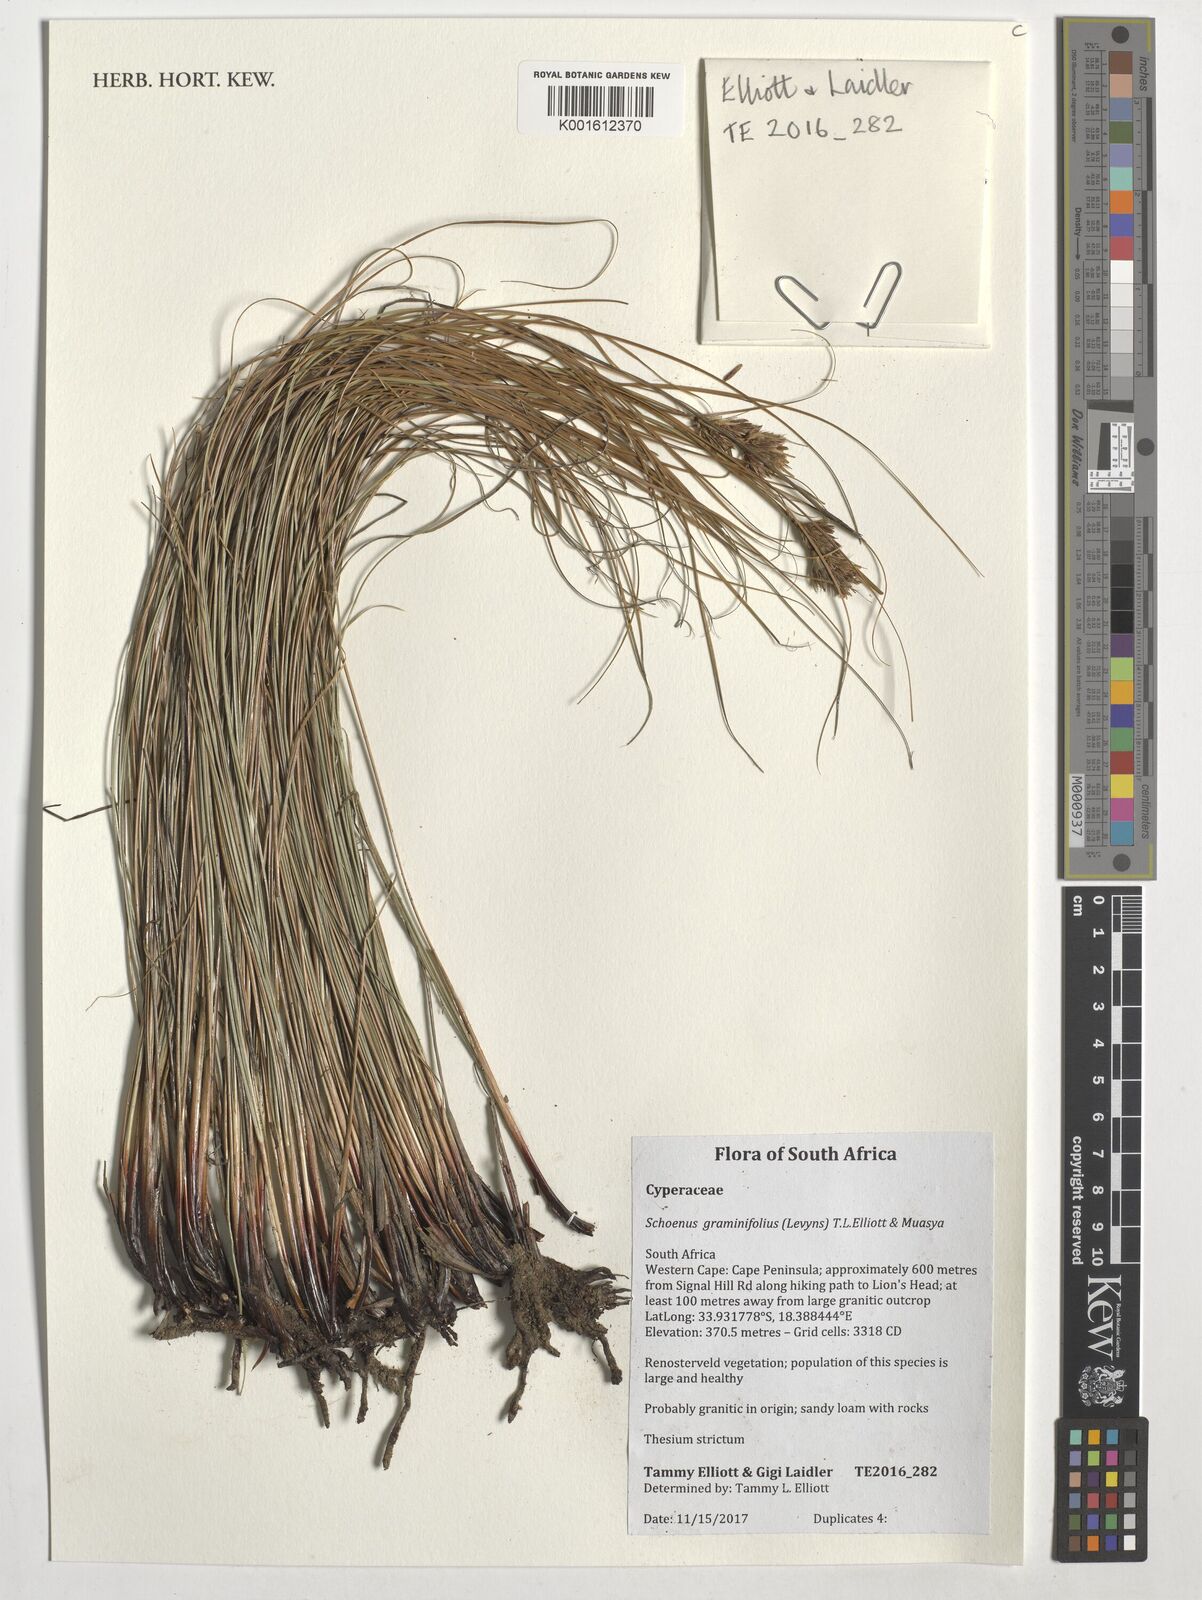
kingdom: Plantae
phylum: Tracheophyta
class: Liliopsida
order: Poales
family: Cyperaceae
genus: Schoenus
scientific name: Schoenus graminifolius
